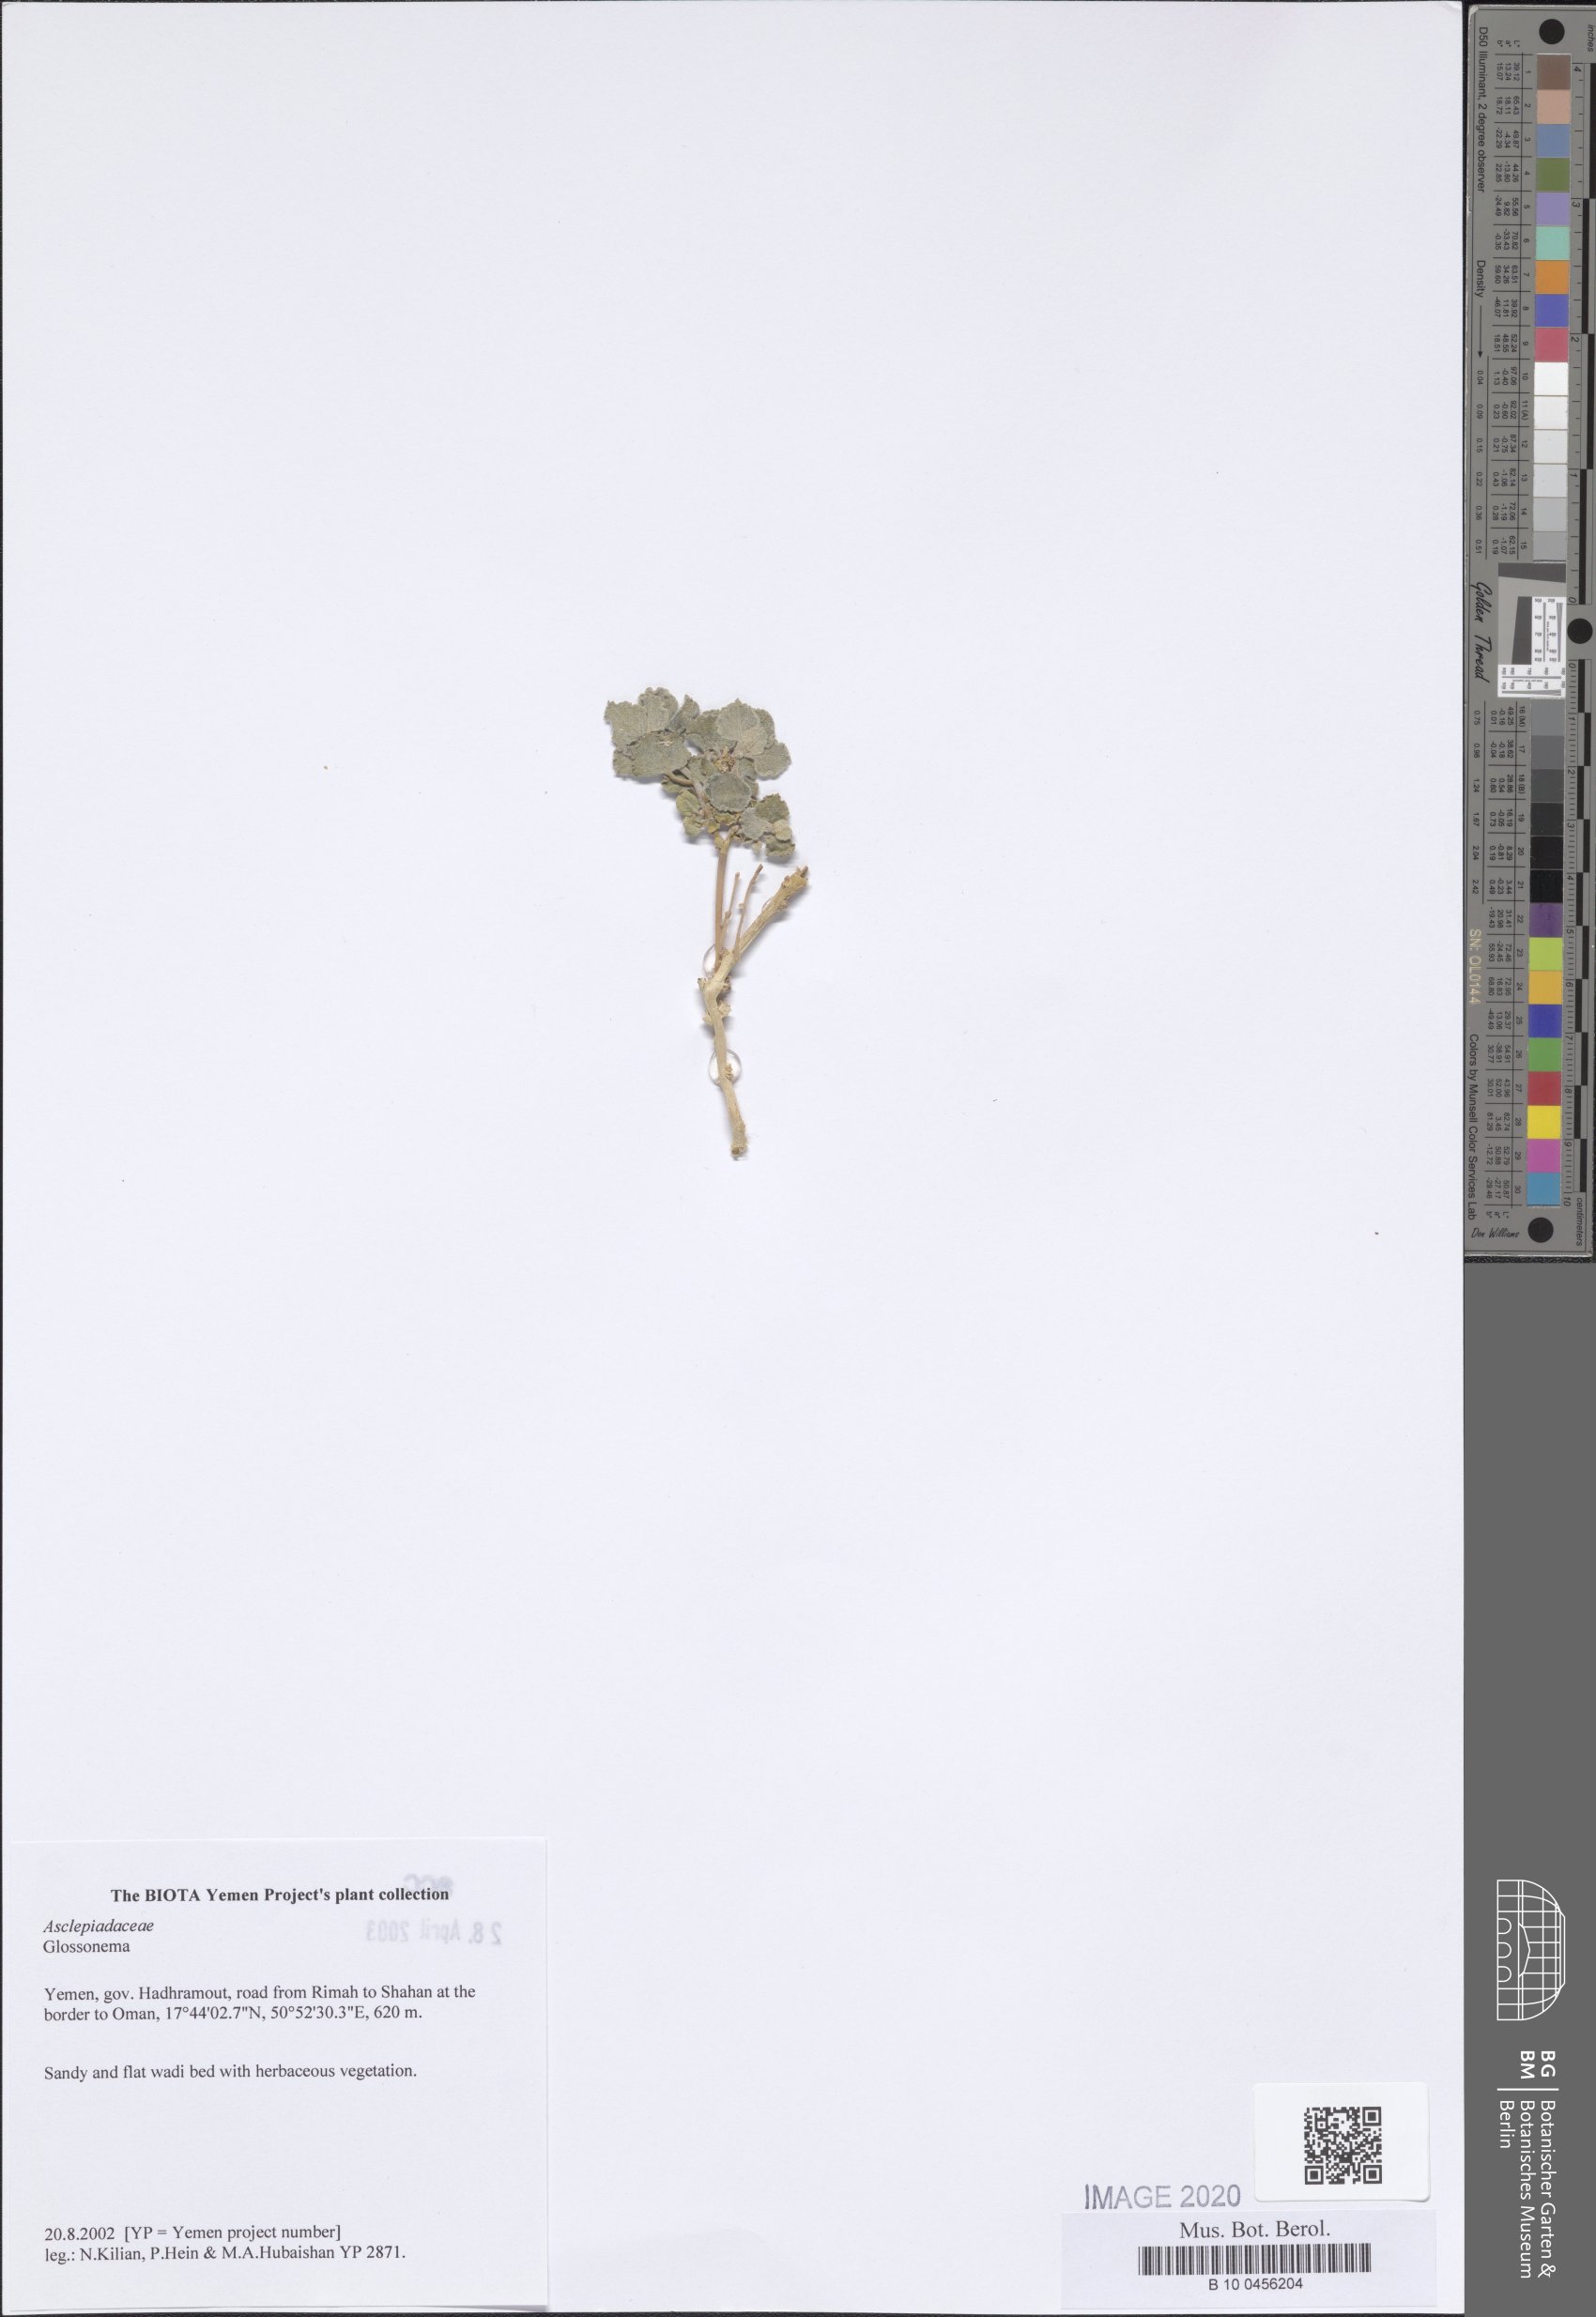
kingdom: Plantae
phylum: Tracheophyta
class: Magnoliopsida
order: Gentianales
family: Apocynaceae
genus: Cynanchum
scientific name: Cynanchum
